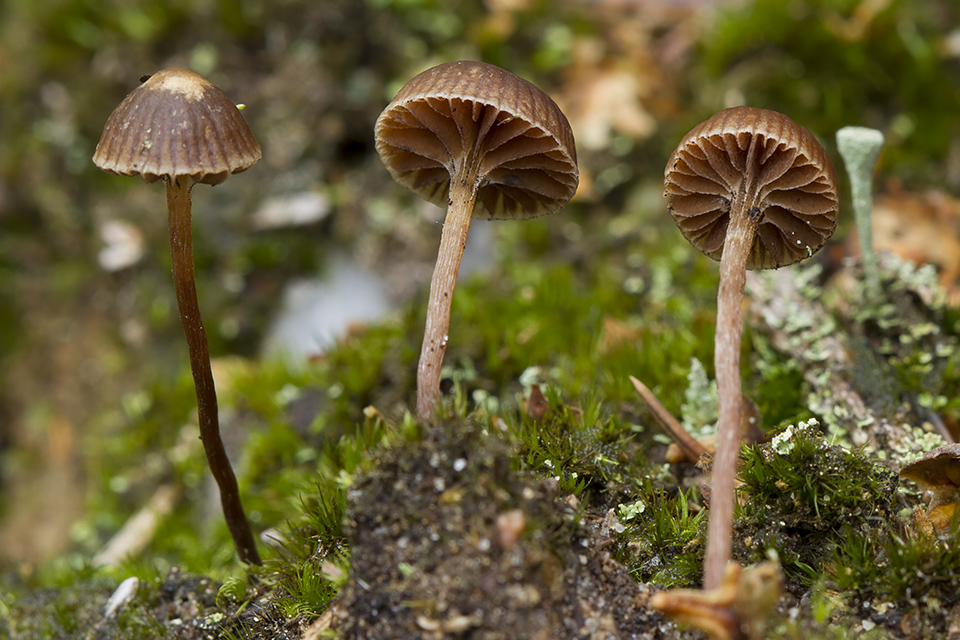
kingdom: Fungi
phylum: Basidiomycota
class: Agaricomycetes
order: Agaricales
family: Strophariaceae
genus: Deconica
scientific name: Deconica montana
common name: rødbrun stråhat
